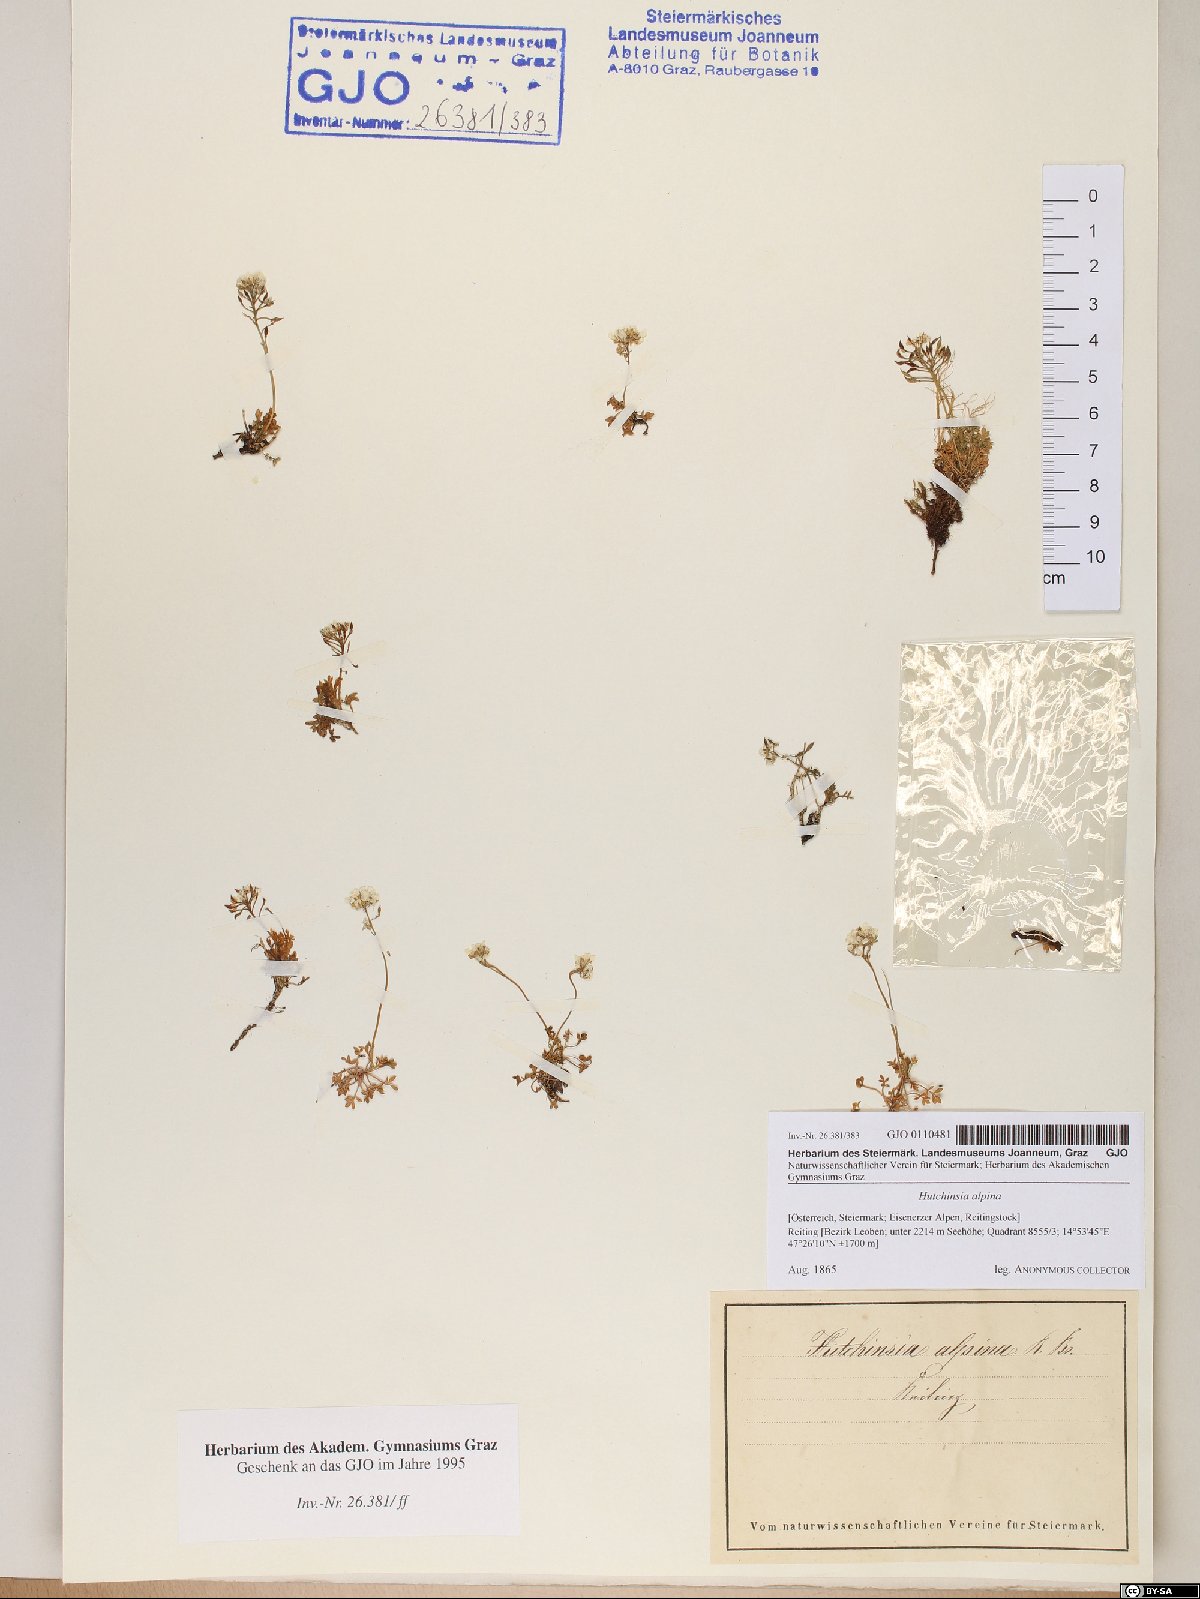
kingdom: Plantae
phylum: Tracheophyta
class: Magnoliopsida
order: Brassicales
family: Brassicaceae
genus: Hornungia
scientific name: Hornungia alpina
